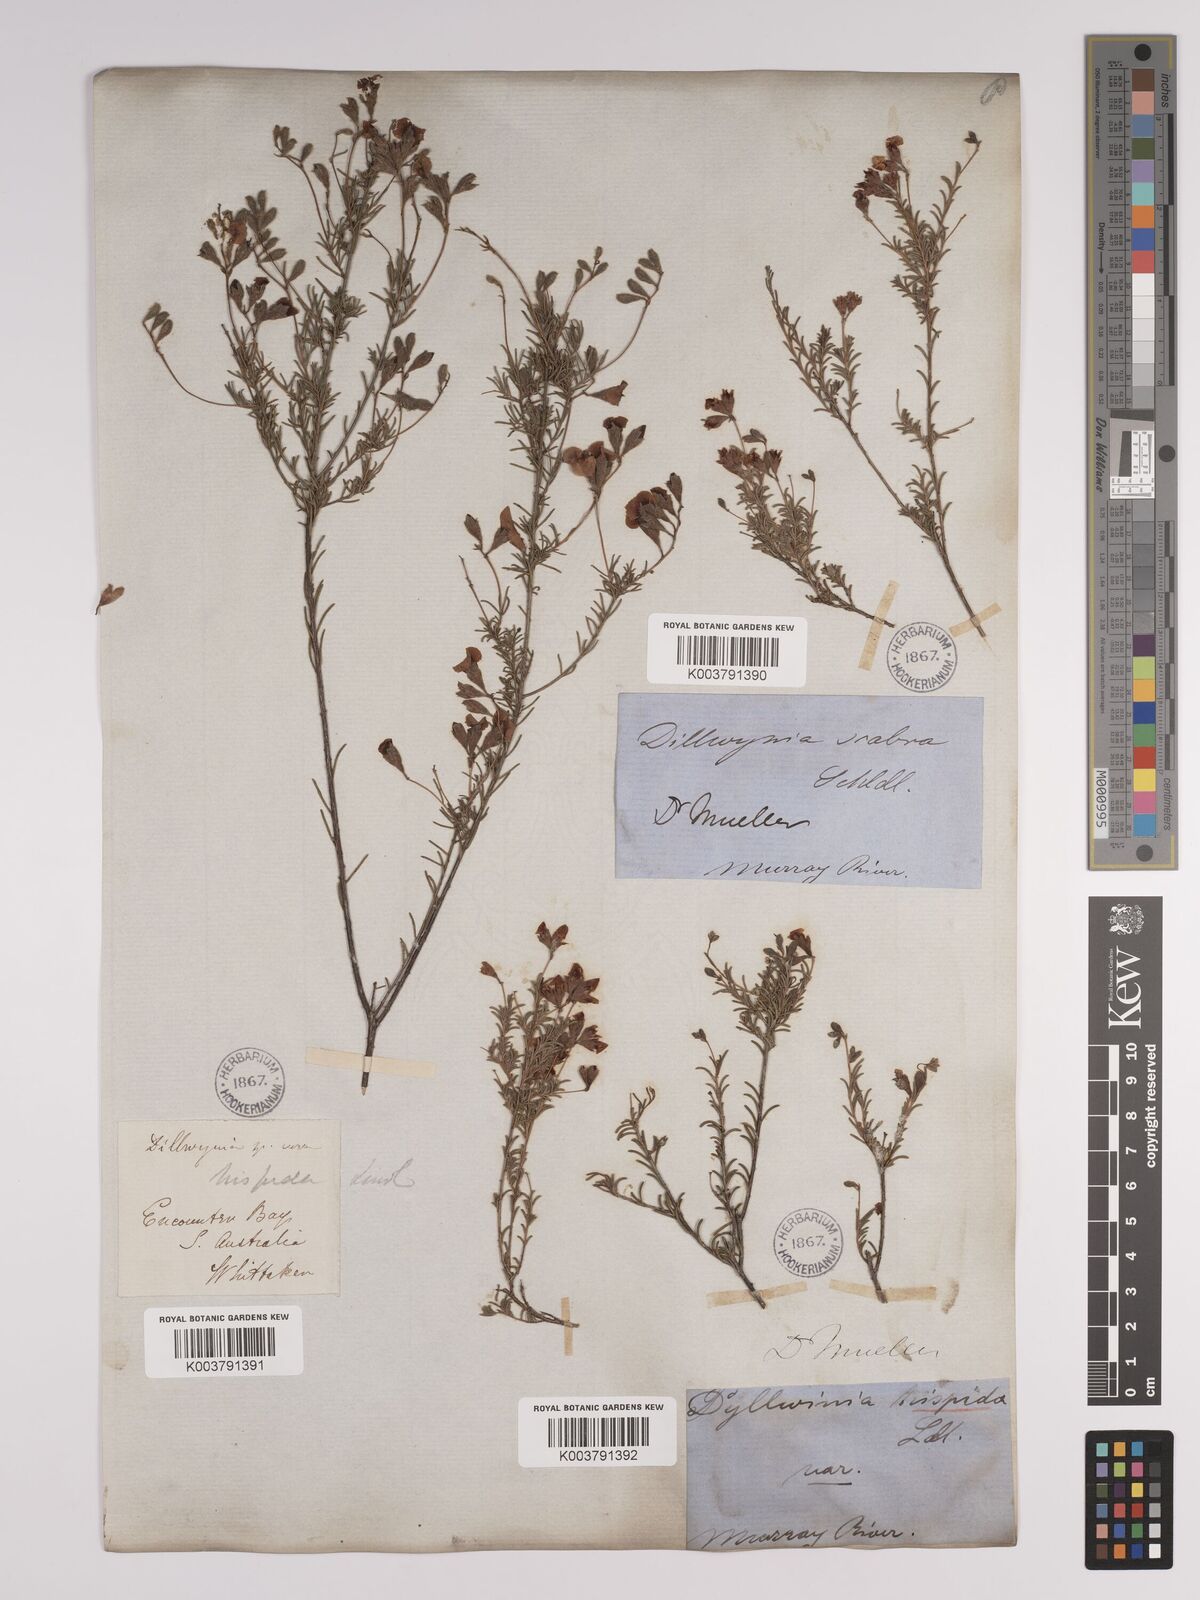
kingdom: Plantae
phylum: Tracheophyta
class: Magnoliopsida
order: Fabales
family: Fabaceae
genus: Dillwynia
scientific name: Dillwynia hispida
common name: Red parrot-pea
